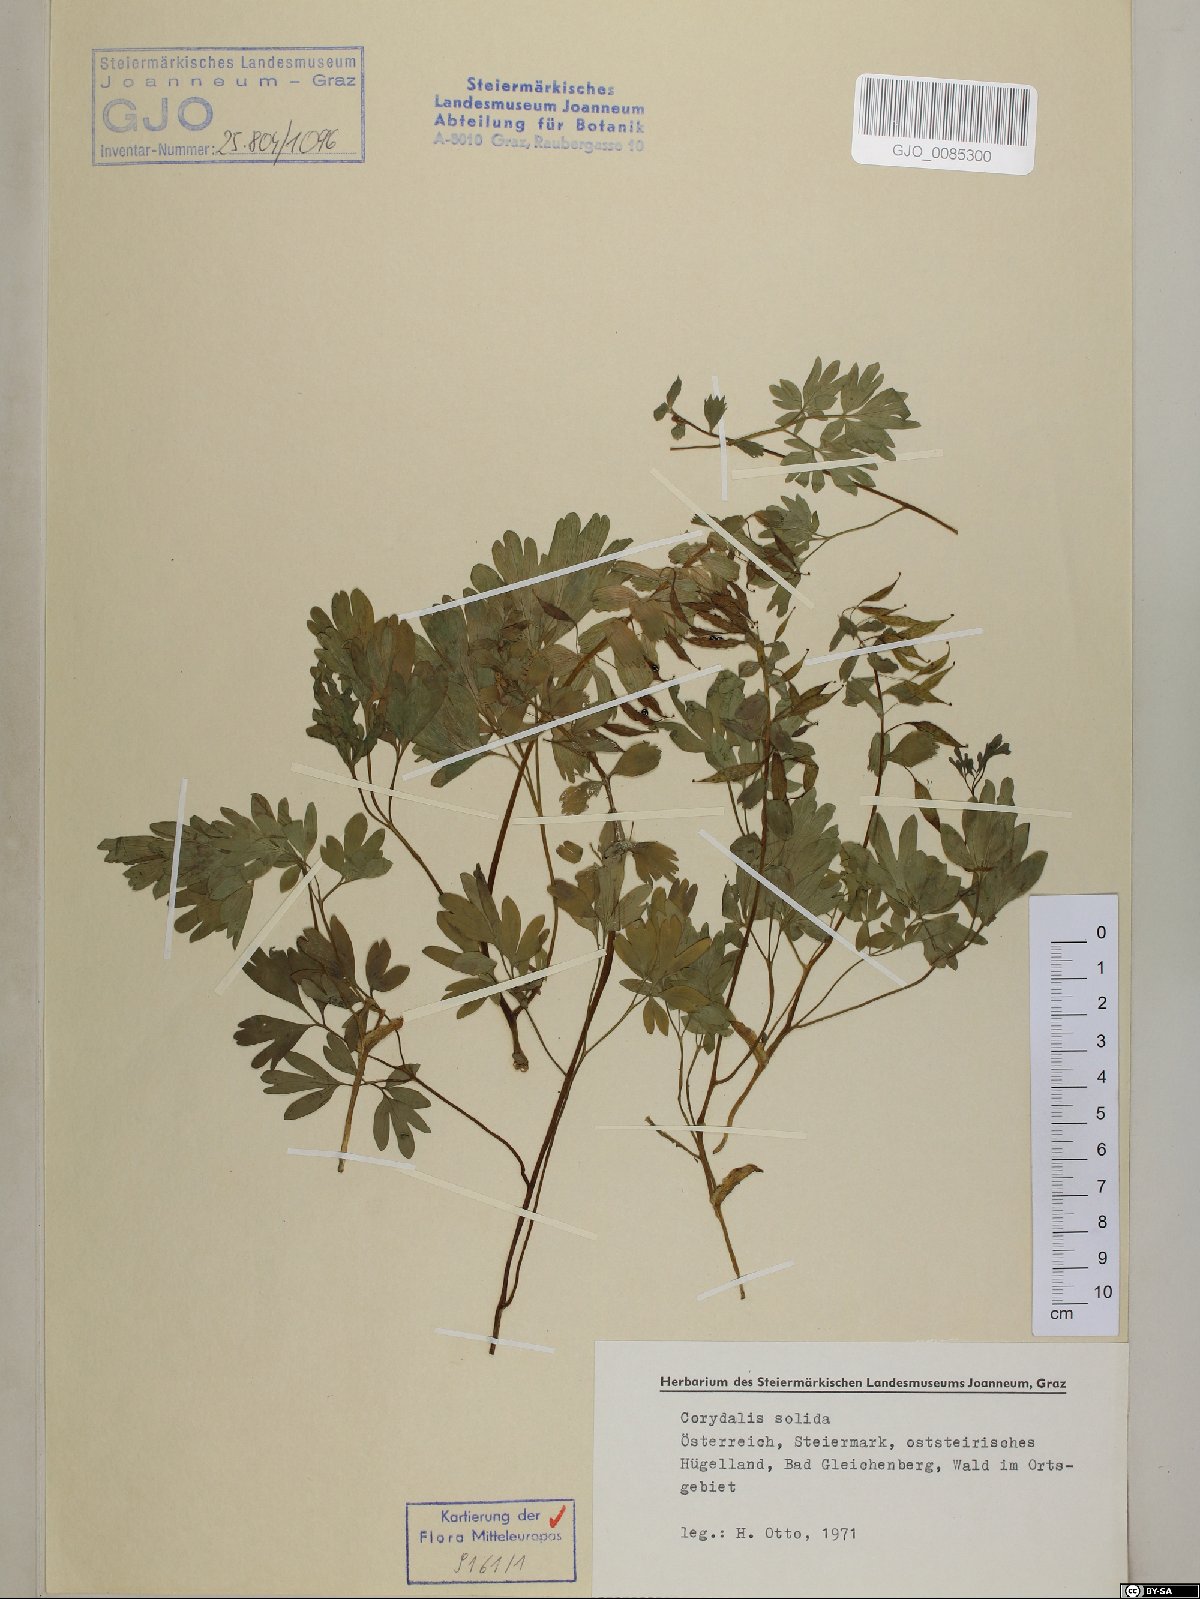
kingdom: Plantae
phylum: Tracheophyta
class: Magnoliopsida
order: Ranunculales
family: Papaveraceae
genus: Corydalis
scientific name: Corydalis solida
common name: Bird-in-a-bush
